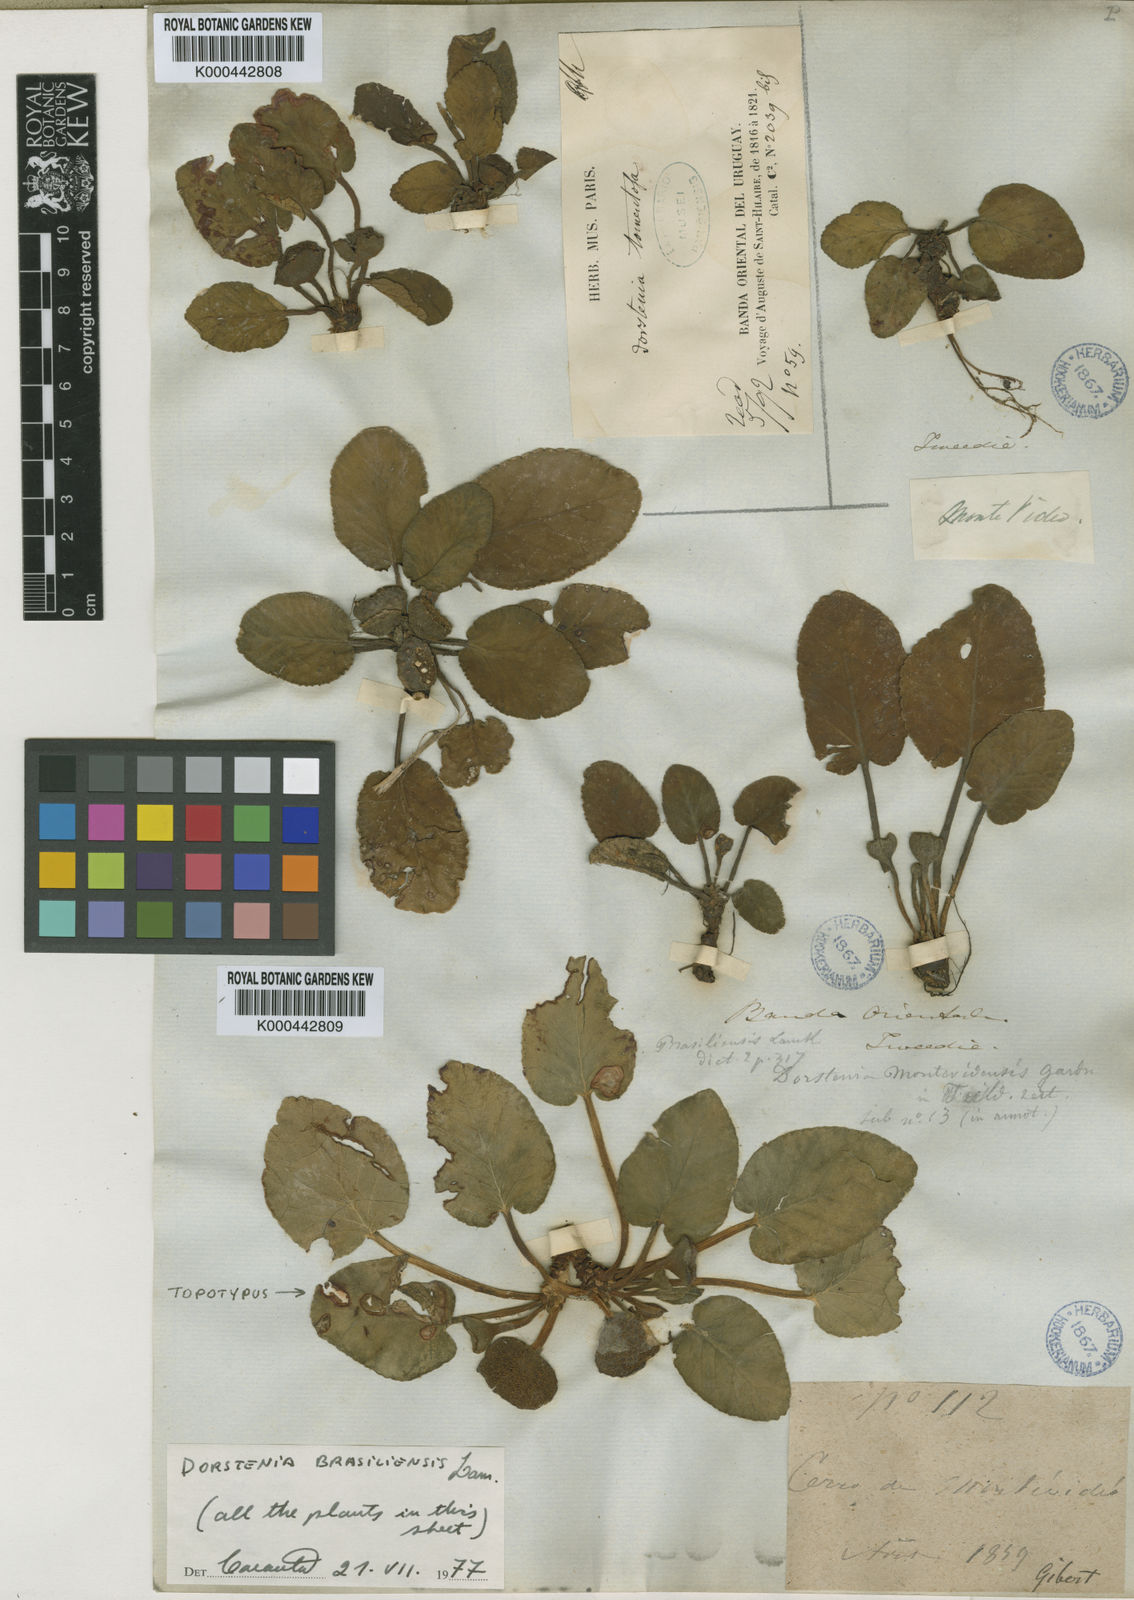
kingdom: Plantae
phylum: Tracheophyta
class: Magnoliopsida
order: Rosales
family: Moraceae
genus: Dorstenia
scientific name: Dorstenia brasiliensis
